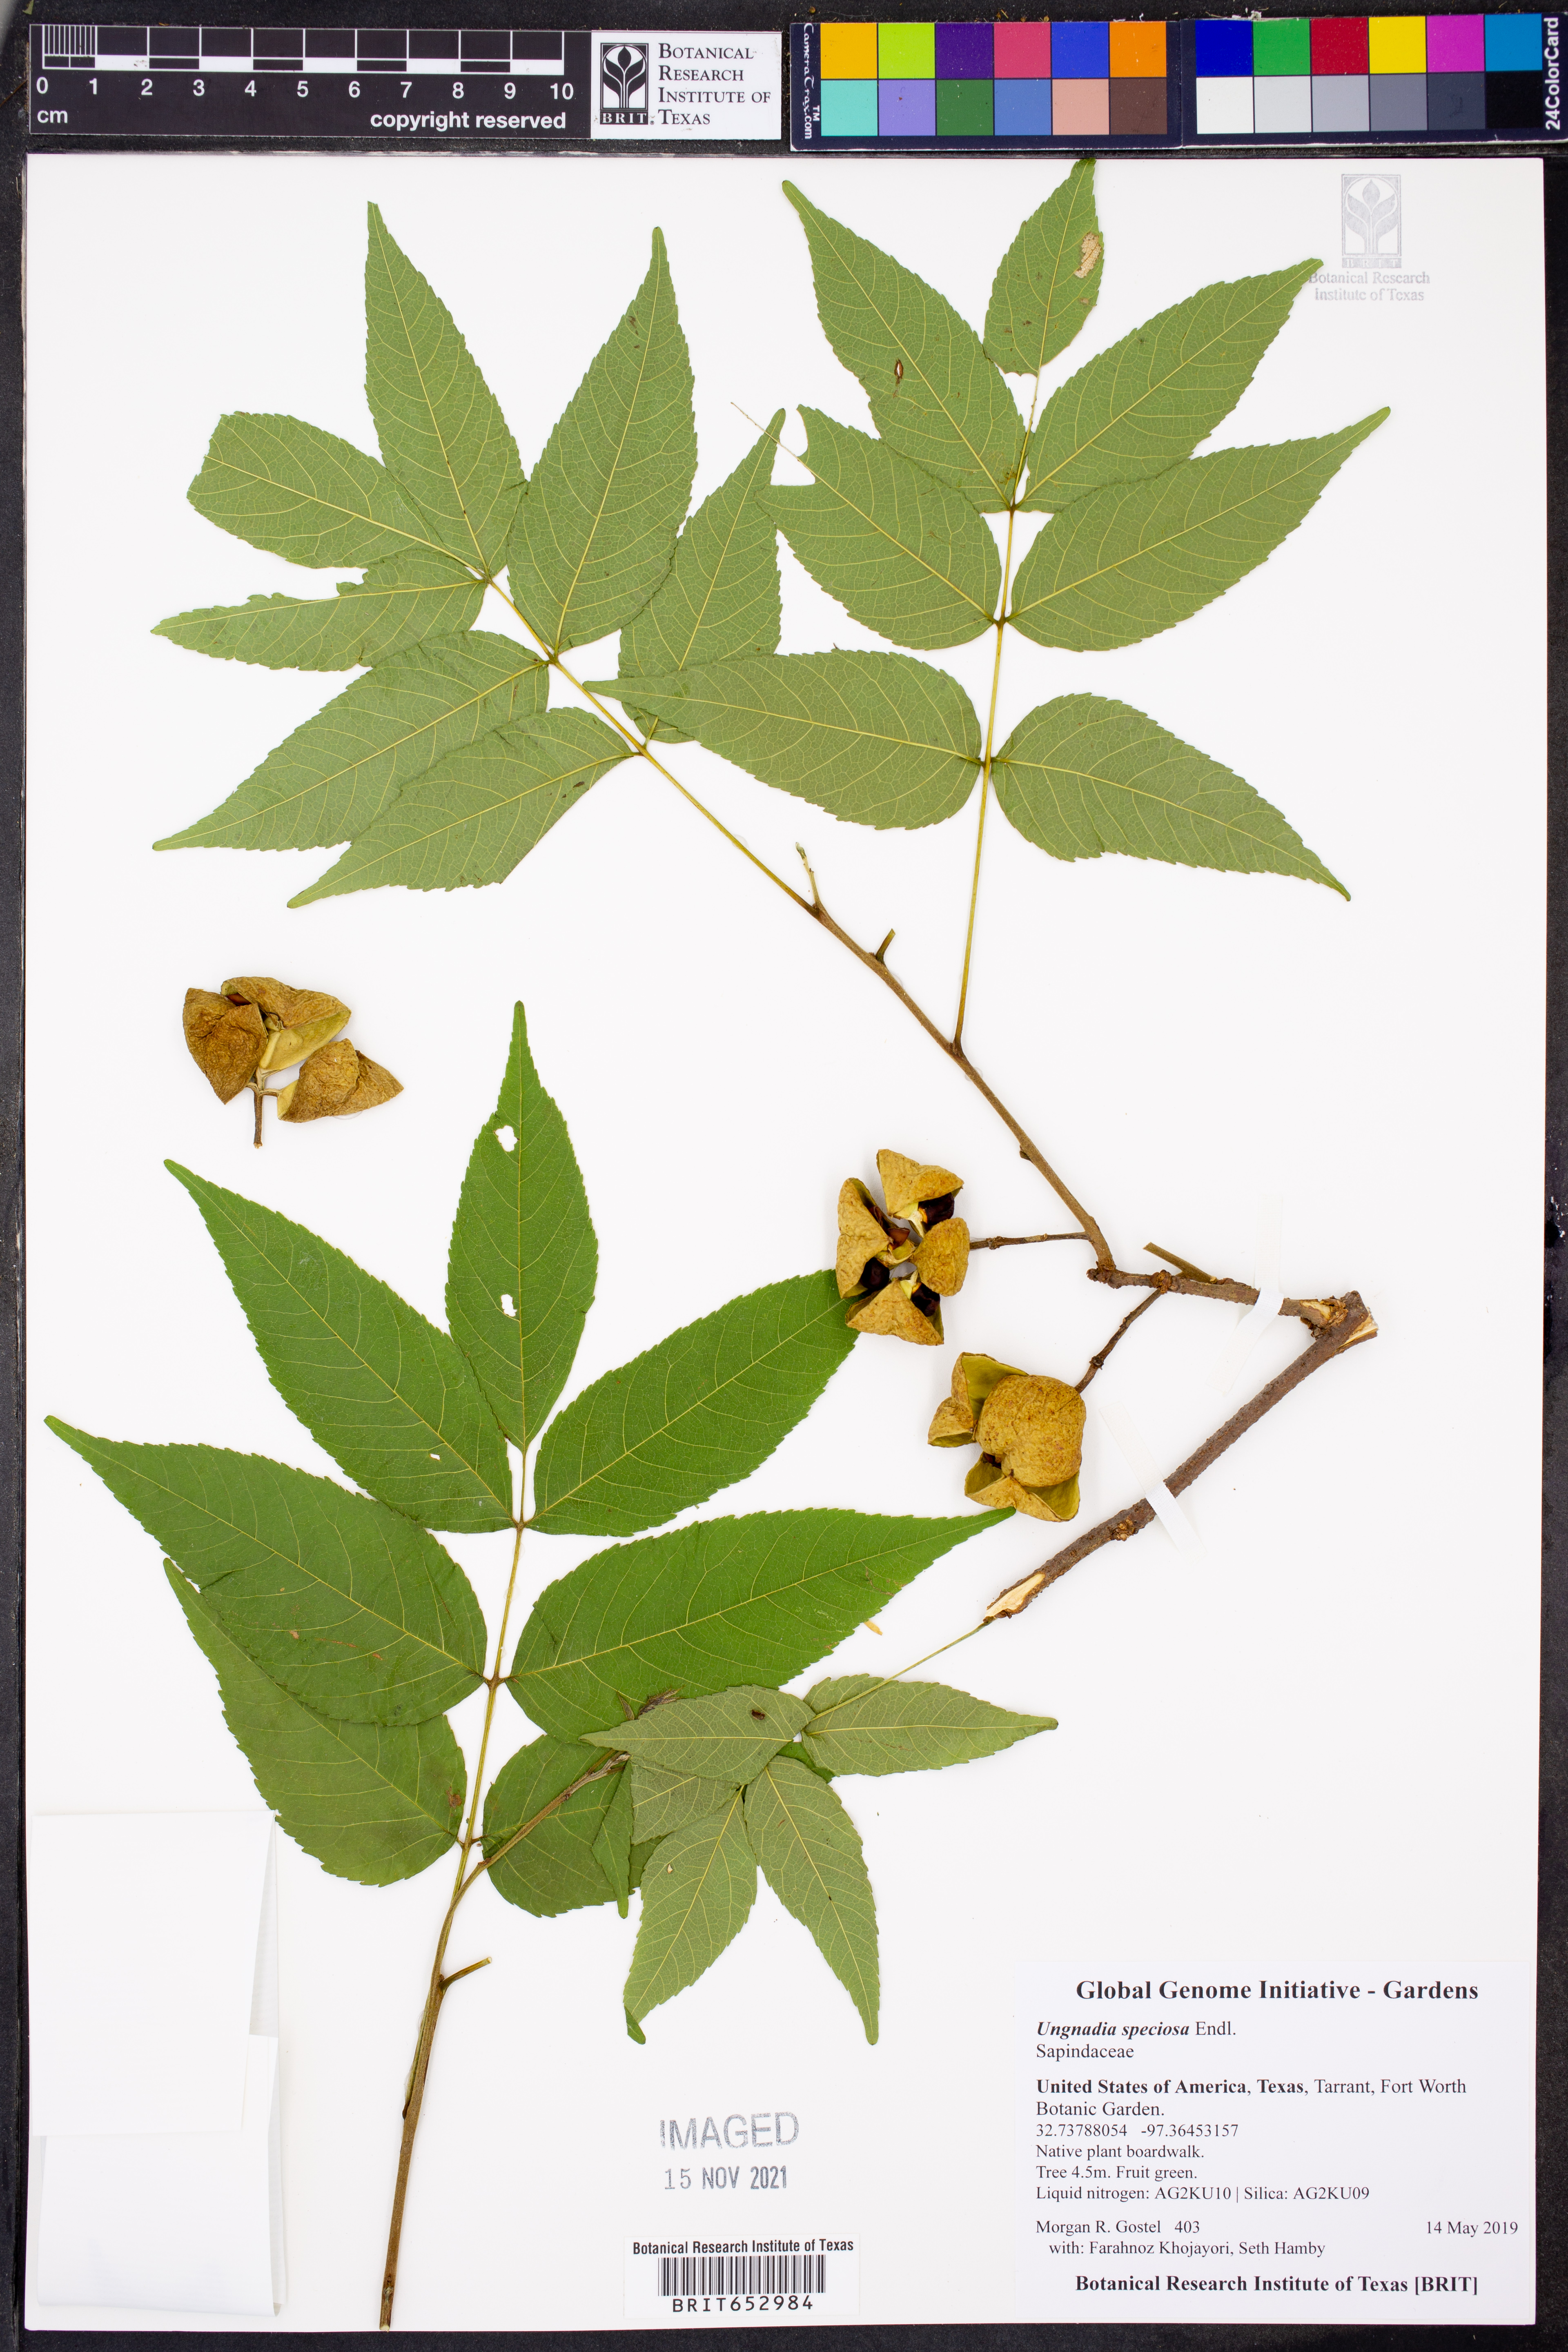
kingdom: Plantae
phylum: Tracheophyta
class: Magnoliopsida
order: Sapindales
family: Sapindaceae
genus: Ungnadia
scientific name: Ungnadia speciosa
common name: Texas-buckeye
